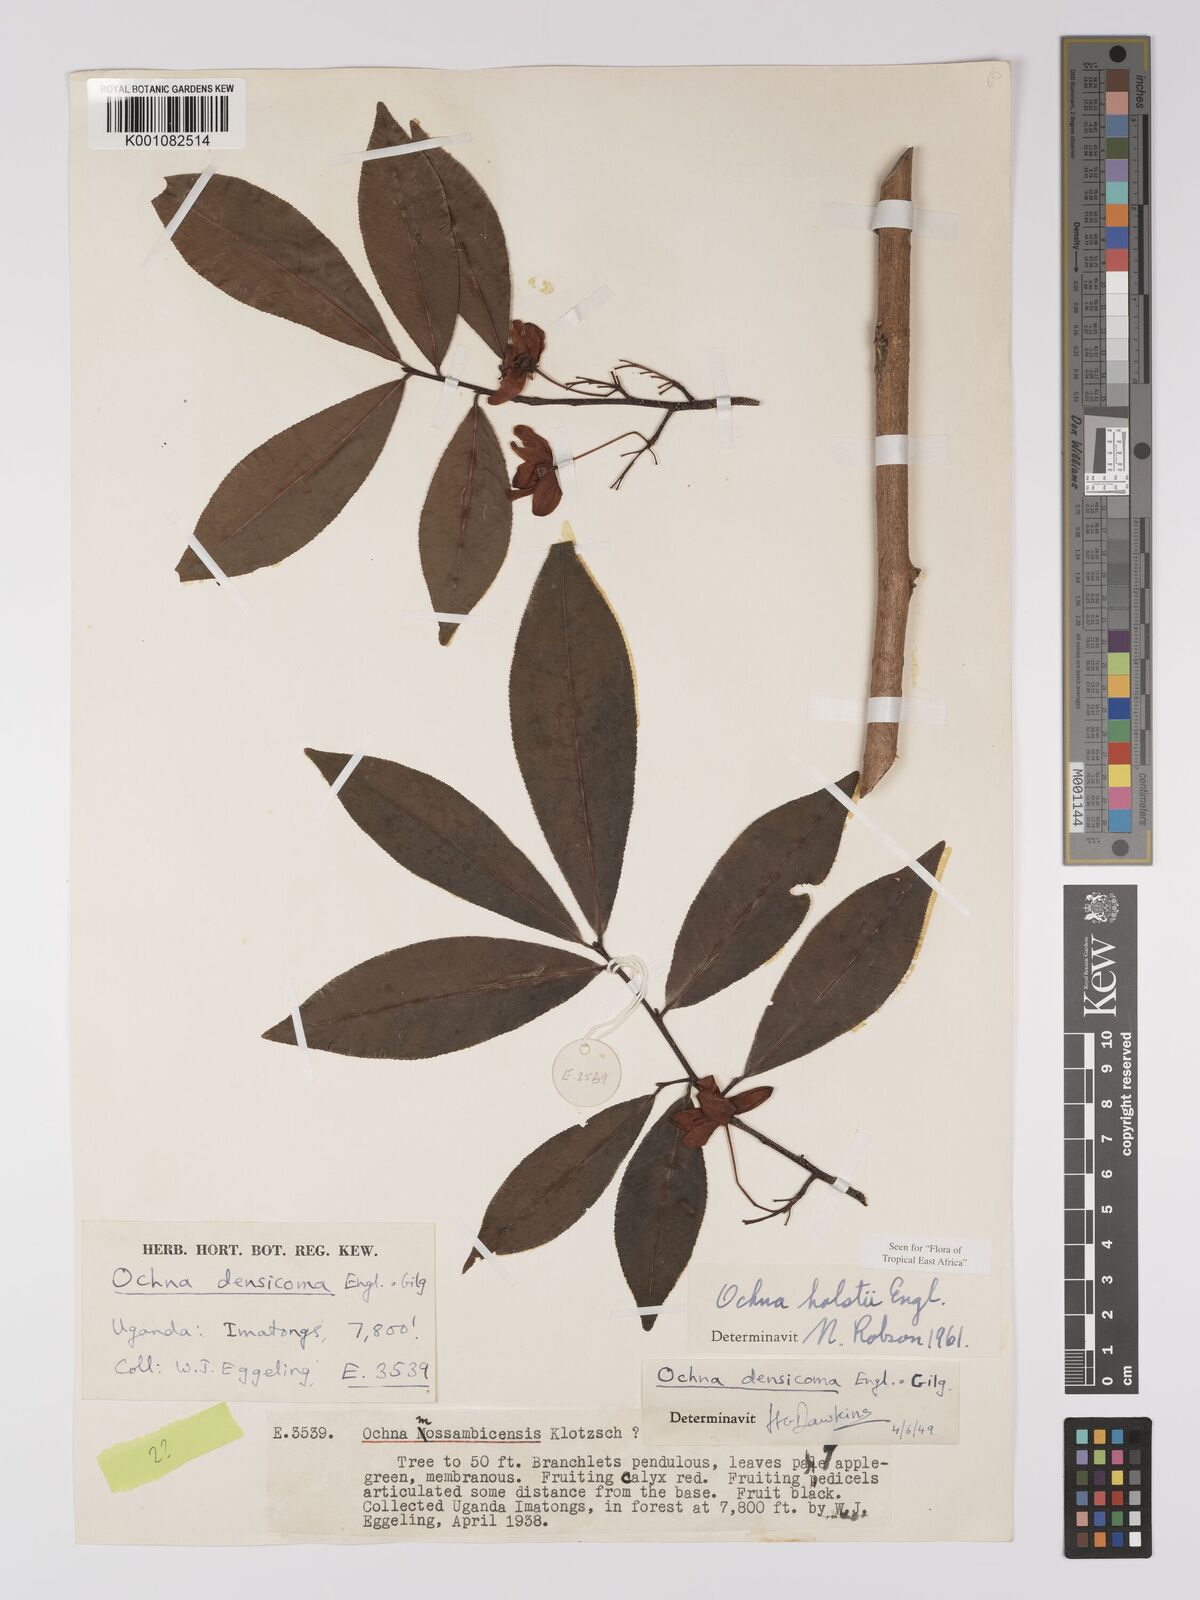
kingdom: Plantae
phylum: Tracheophyta
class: Magnoliopsida
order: Malpighiales
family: Ochnaceae
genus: Ochna
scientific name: Ochna holstii
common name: Red ironwood
